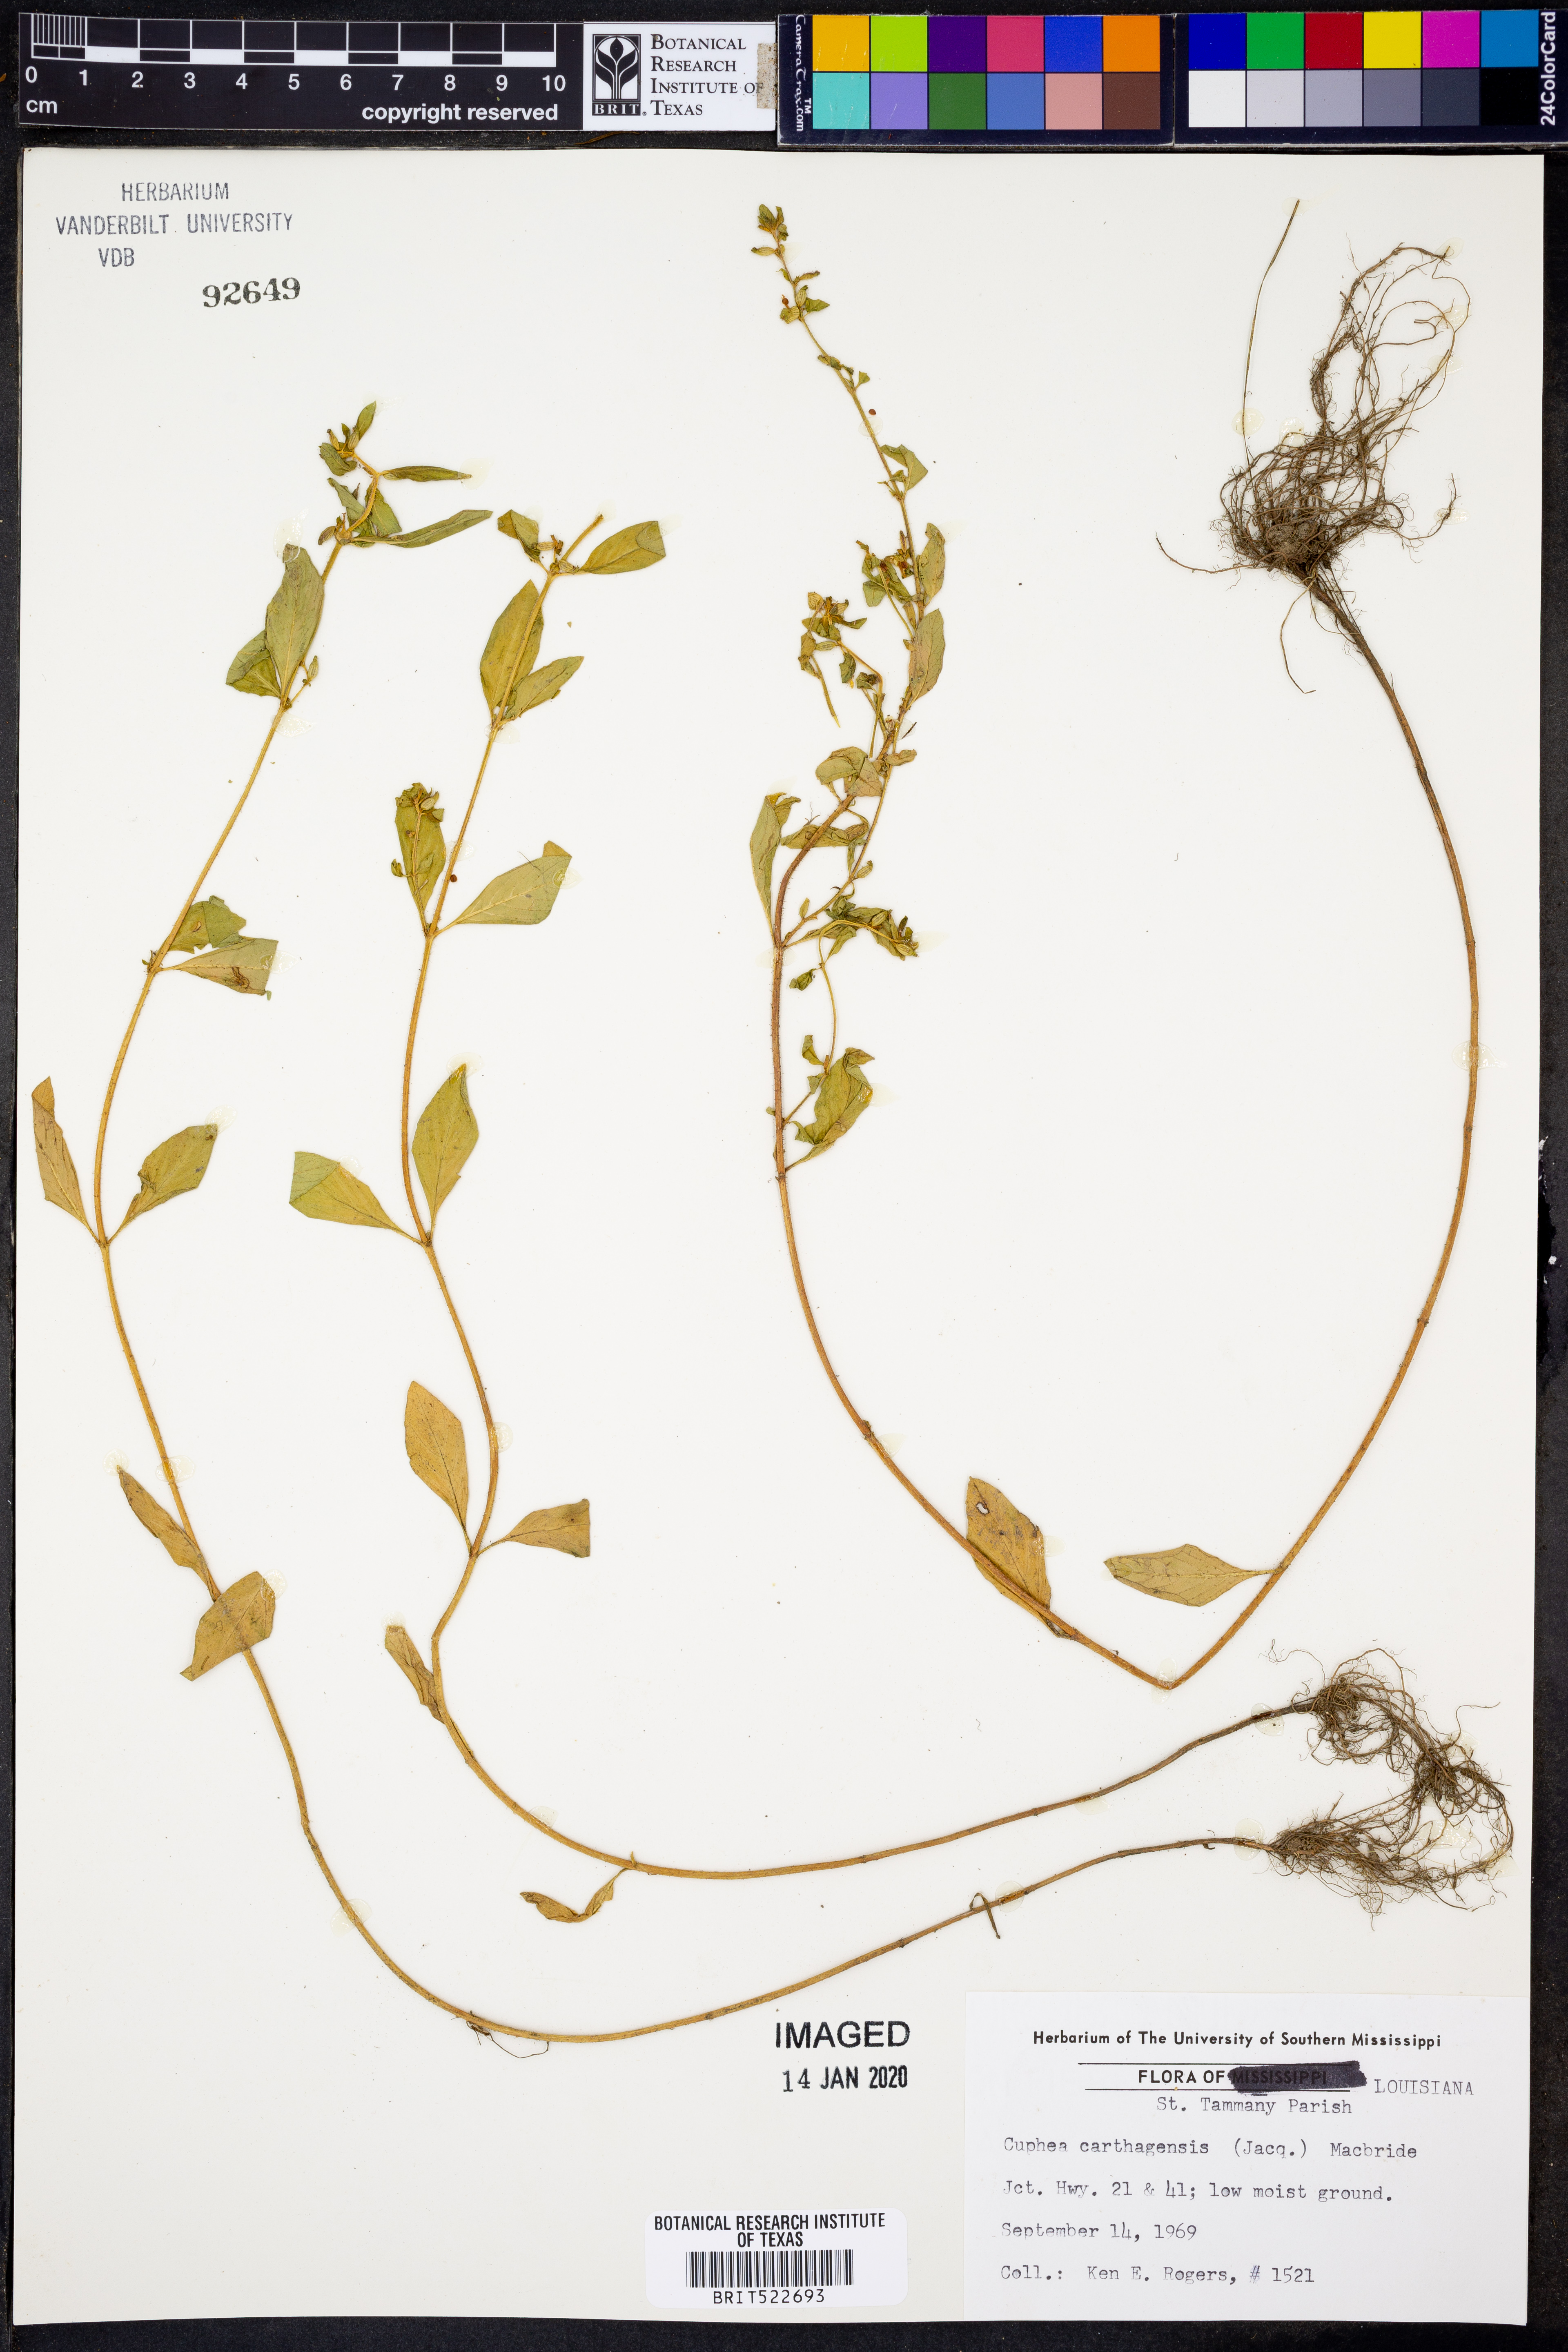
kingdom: Plantae
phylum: Tracheophyta
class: Magnoliopsida
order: Myrtales
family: Lythraceae
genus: Cuphea
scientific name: Cuphea carthagenensis
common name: Colombian waxweed
